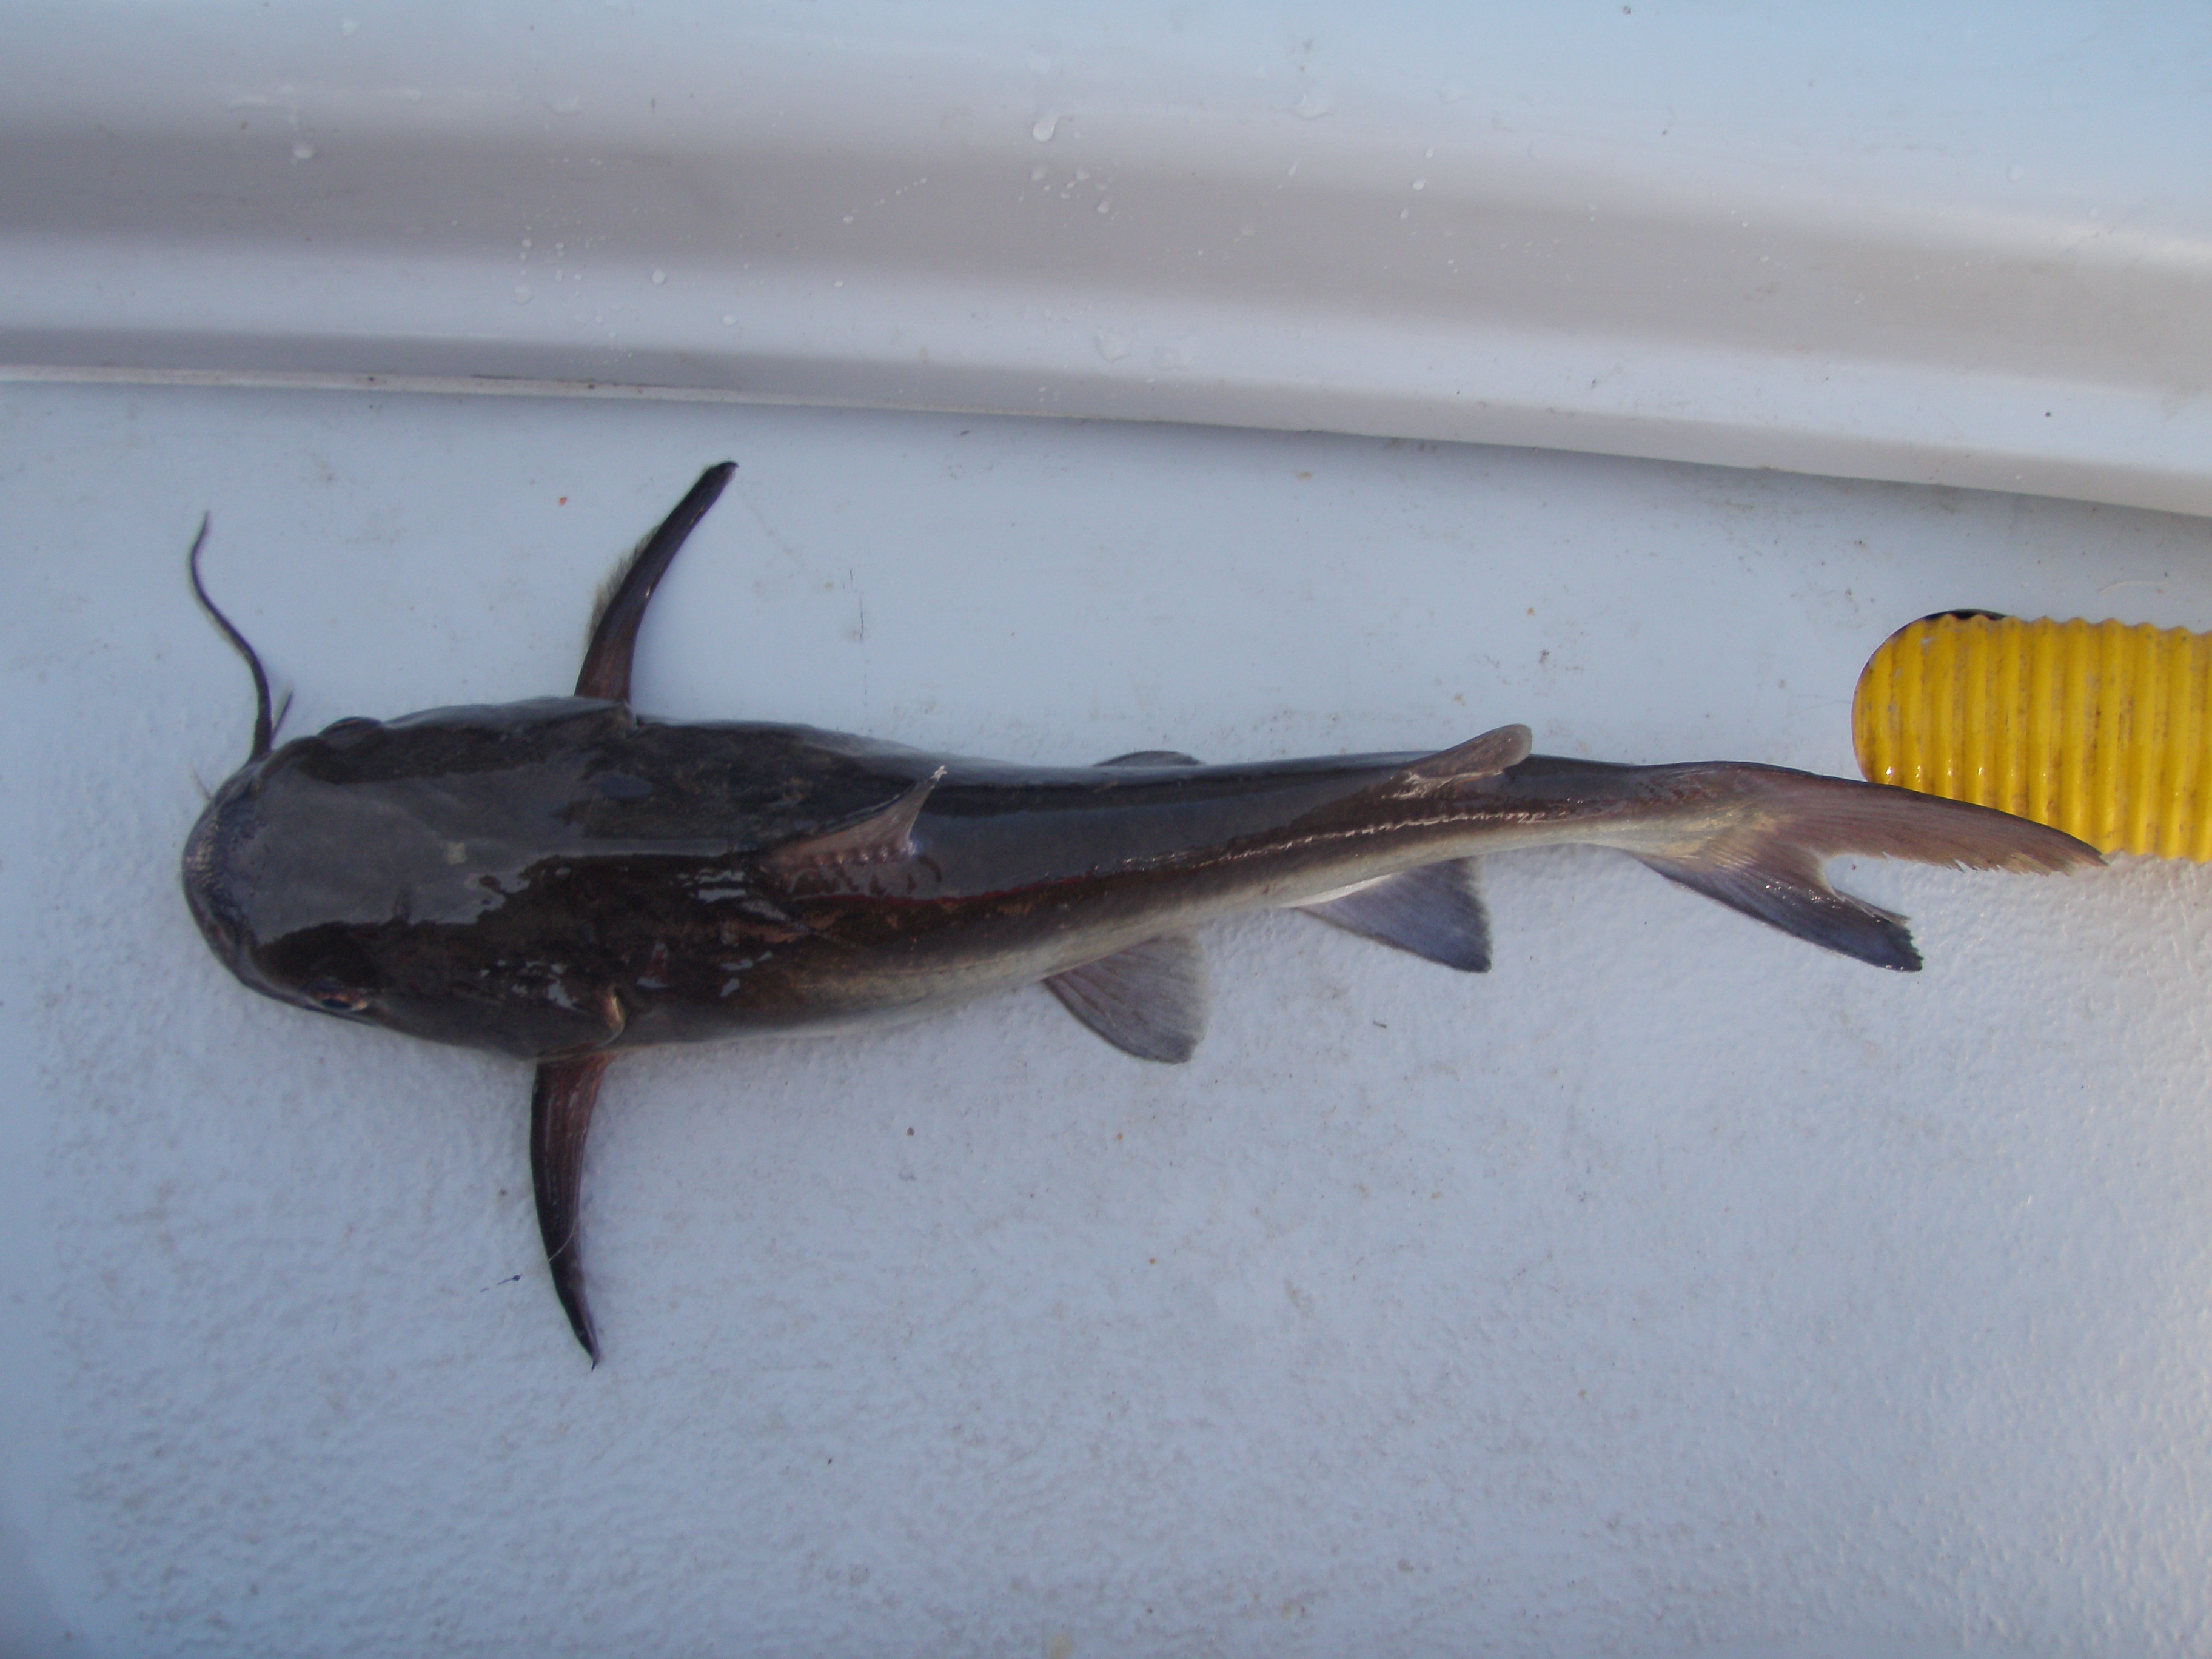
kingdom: Animalia
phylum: Chordata
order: Siluriformes
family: Ariidae
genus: Galeichthys
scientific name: Galeichthys feliceps
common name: White seacatfish
